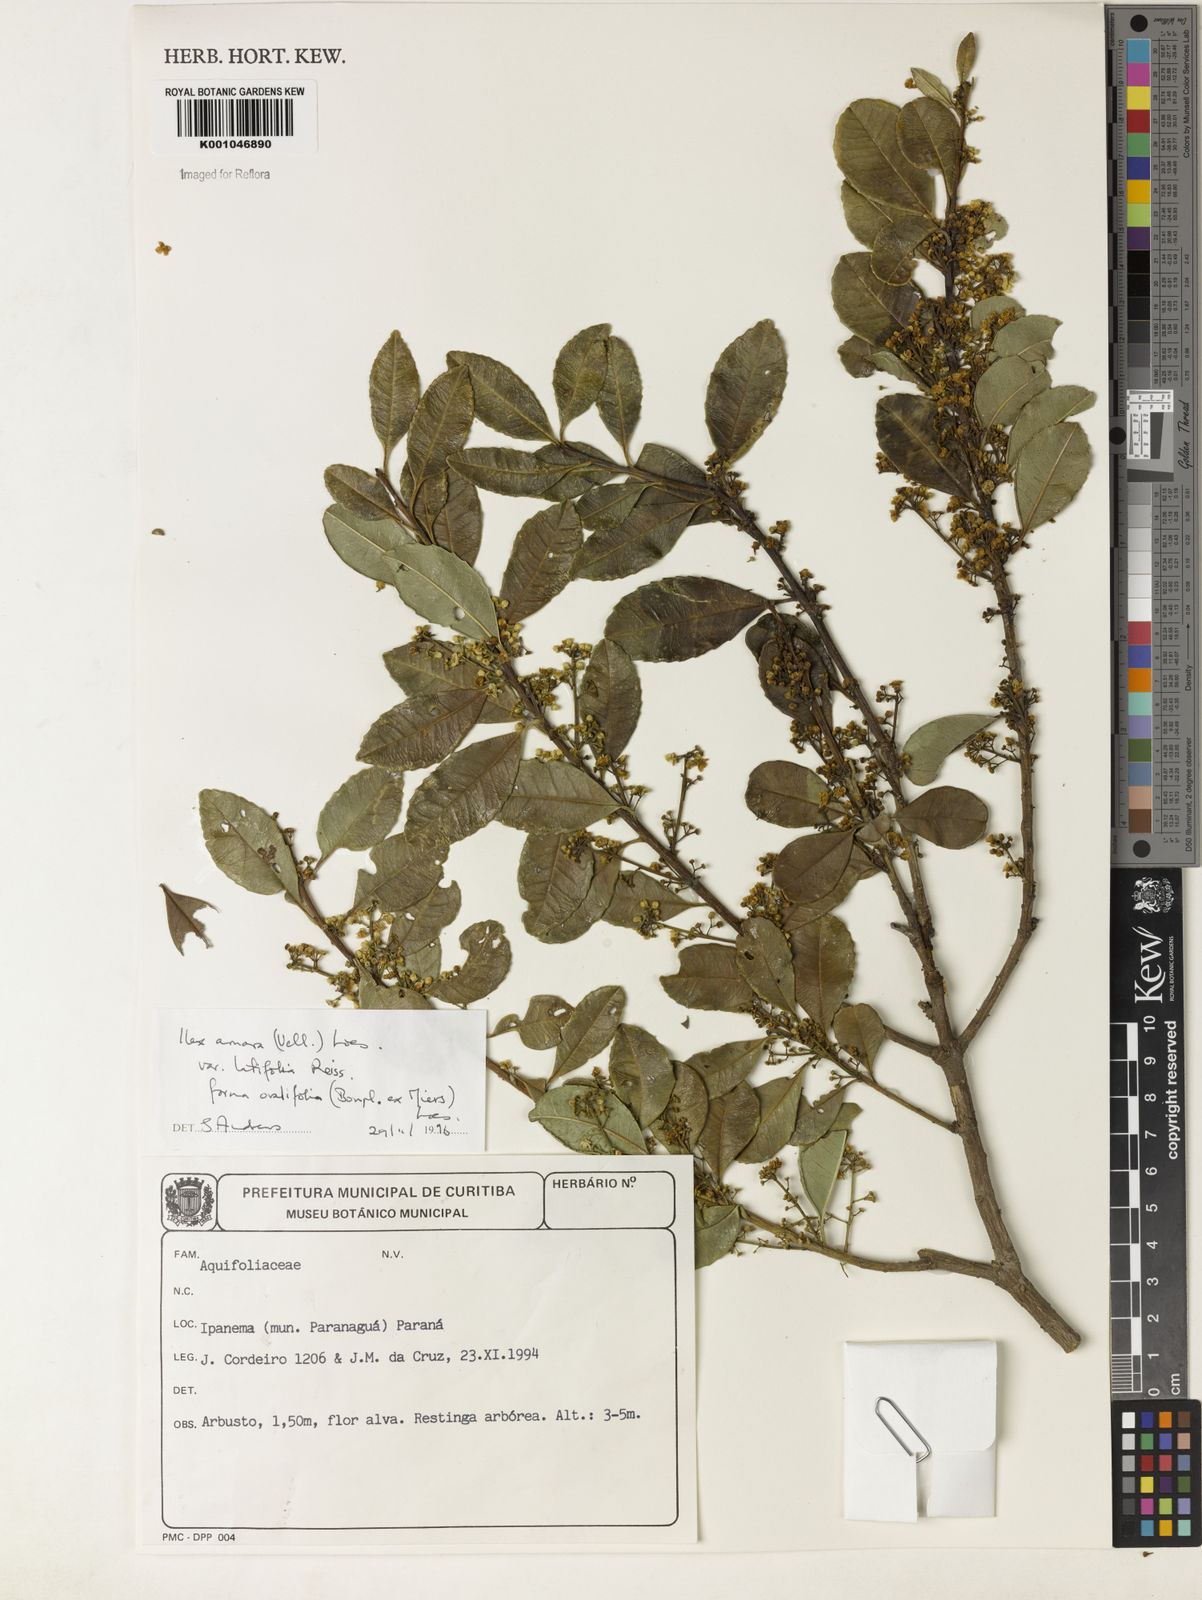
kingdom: Plantae
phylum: Tracheophyta
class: Magnoliopsida
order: Aquifoliales
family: Aquifoliaceae
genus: Ilex
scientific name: Ilex
